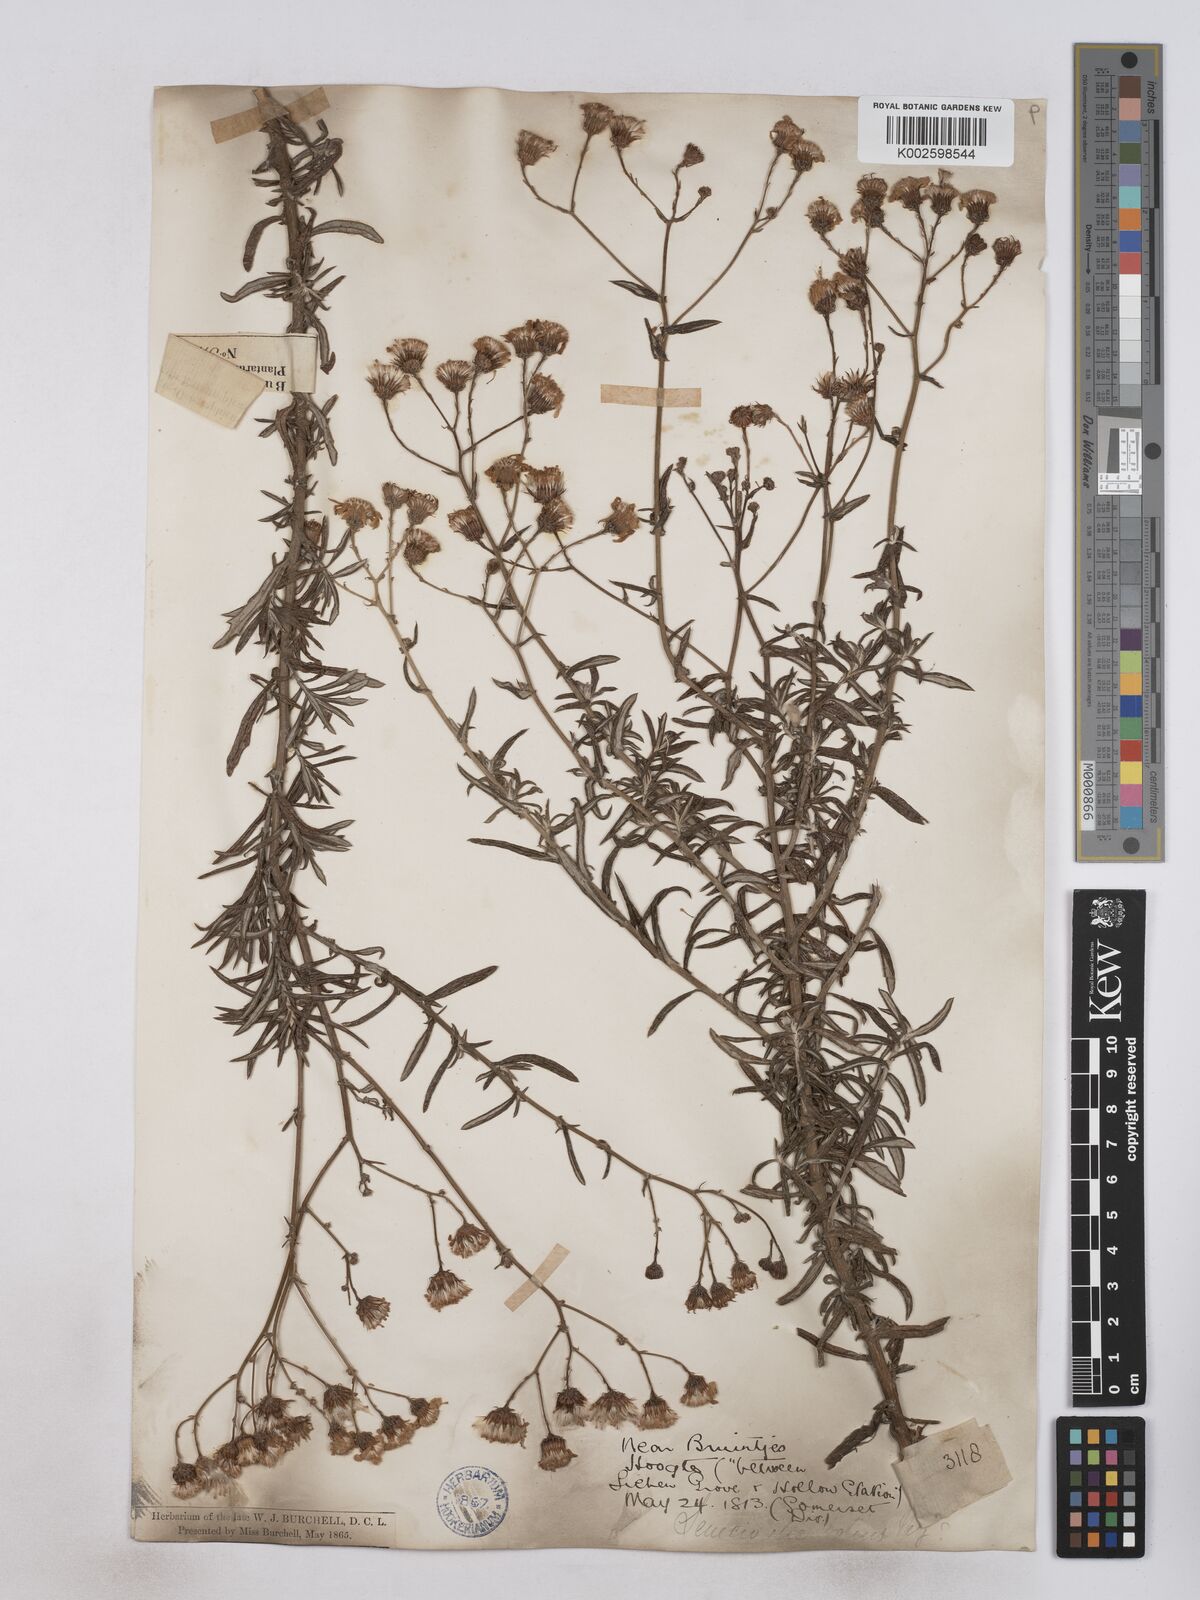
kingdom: Plantae
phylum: Tracheophyta
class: Magnoliopsida
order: Asterales
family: Asteraceae
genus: Senecio
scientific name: Senecio juniperinus
